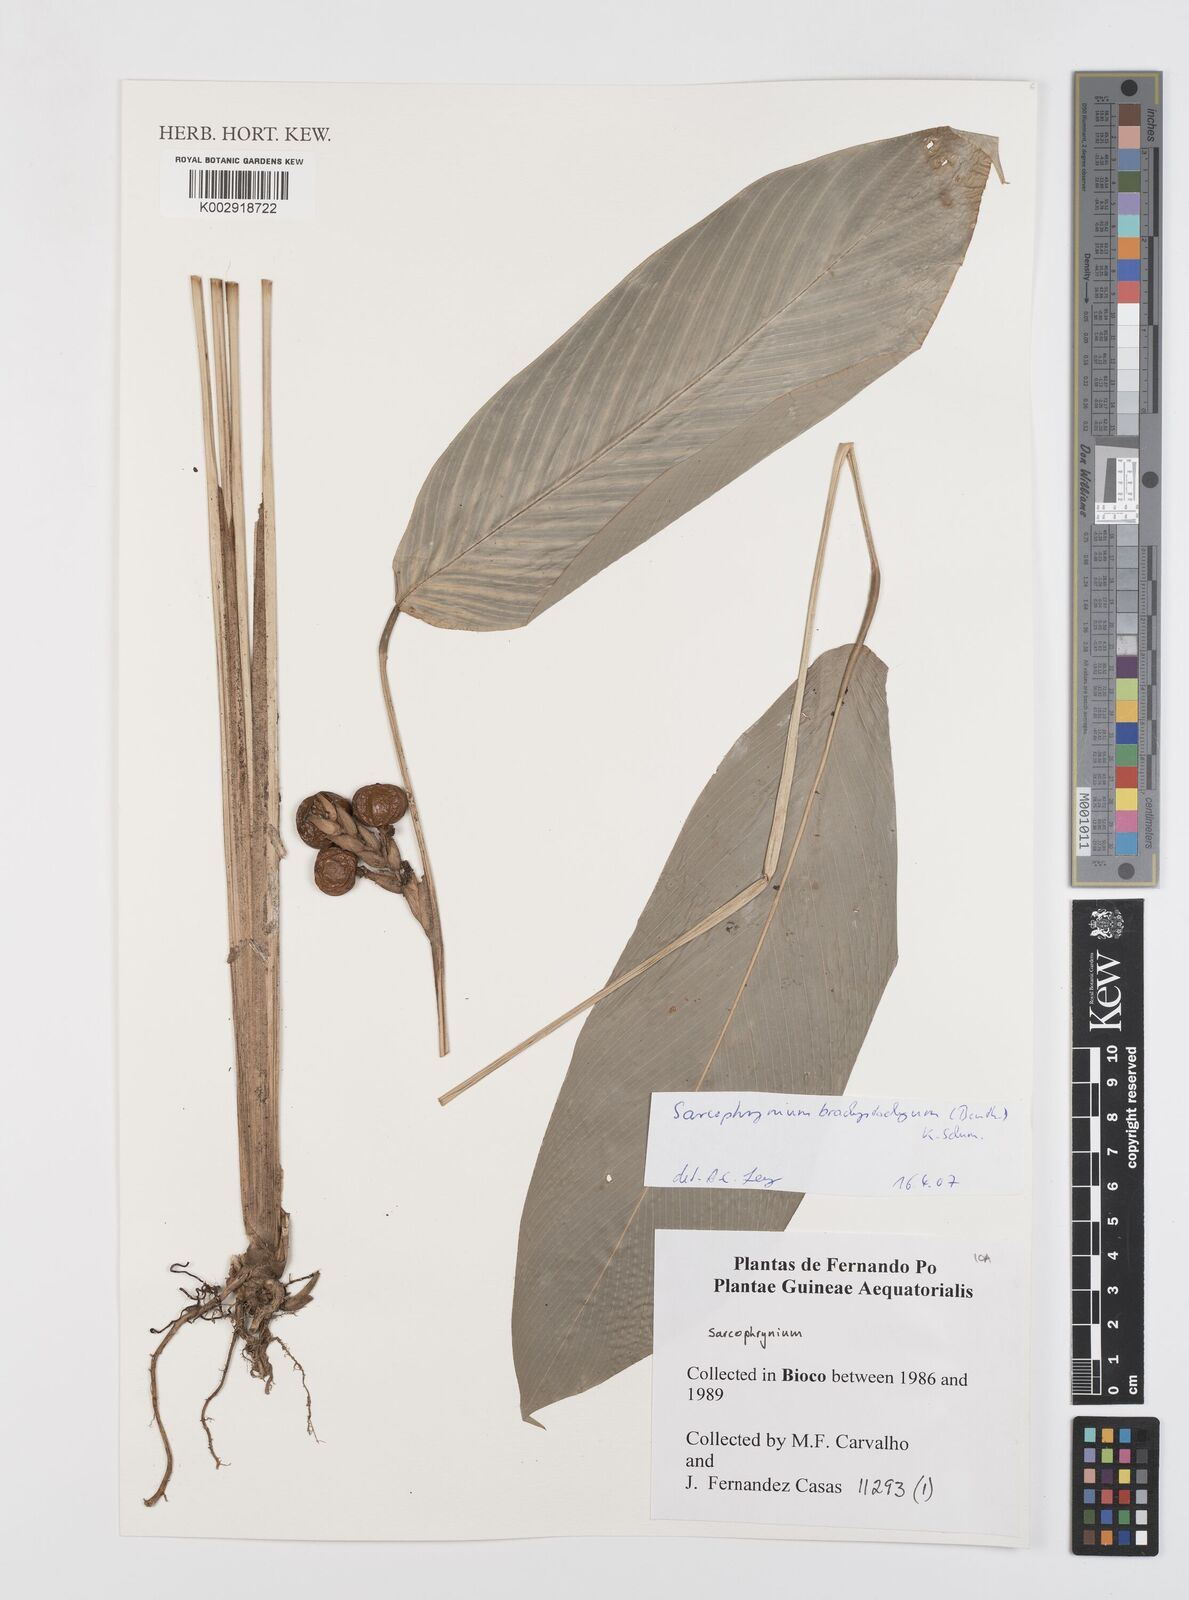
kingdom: Plantae
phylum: Tracheophyta
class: Liliopsida
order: Zingiberales
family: Marantaceae
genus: Sarcophrynium
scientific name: Sarcophrynium brachystachyum
